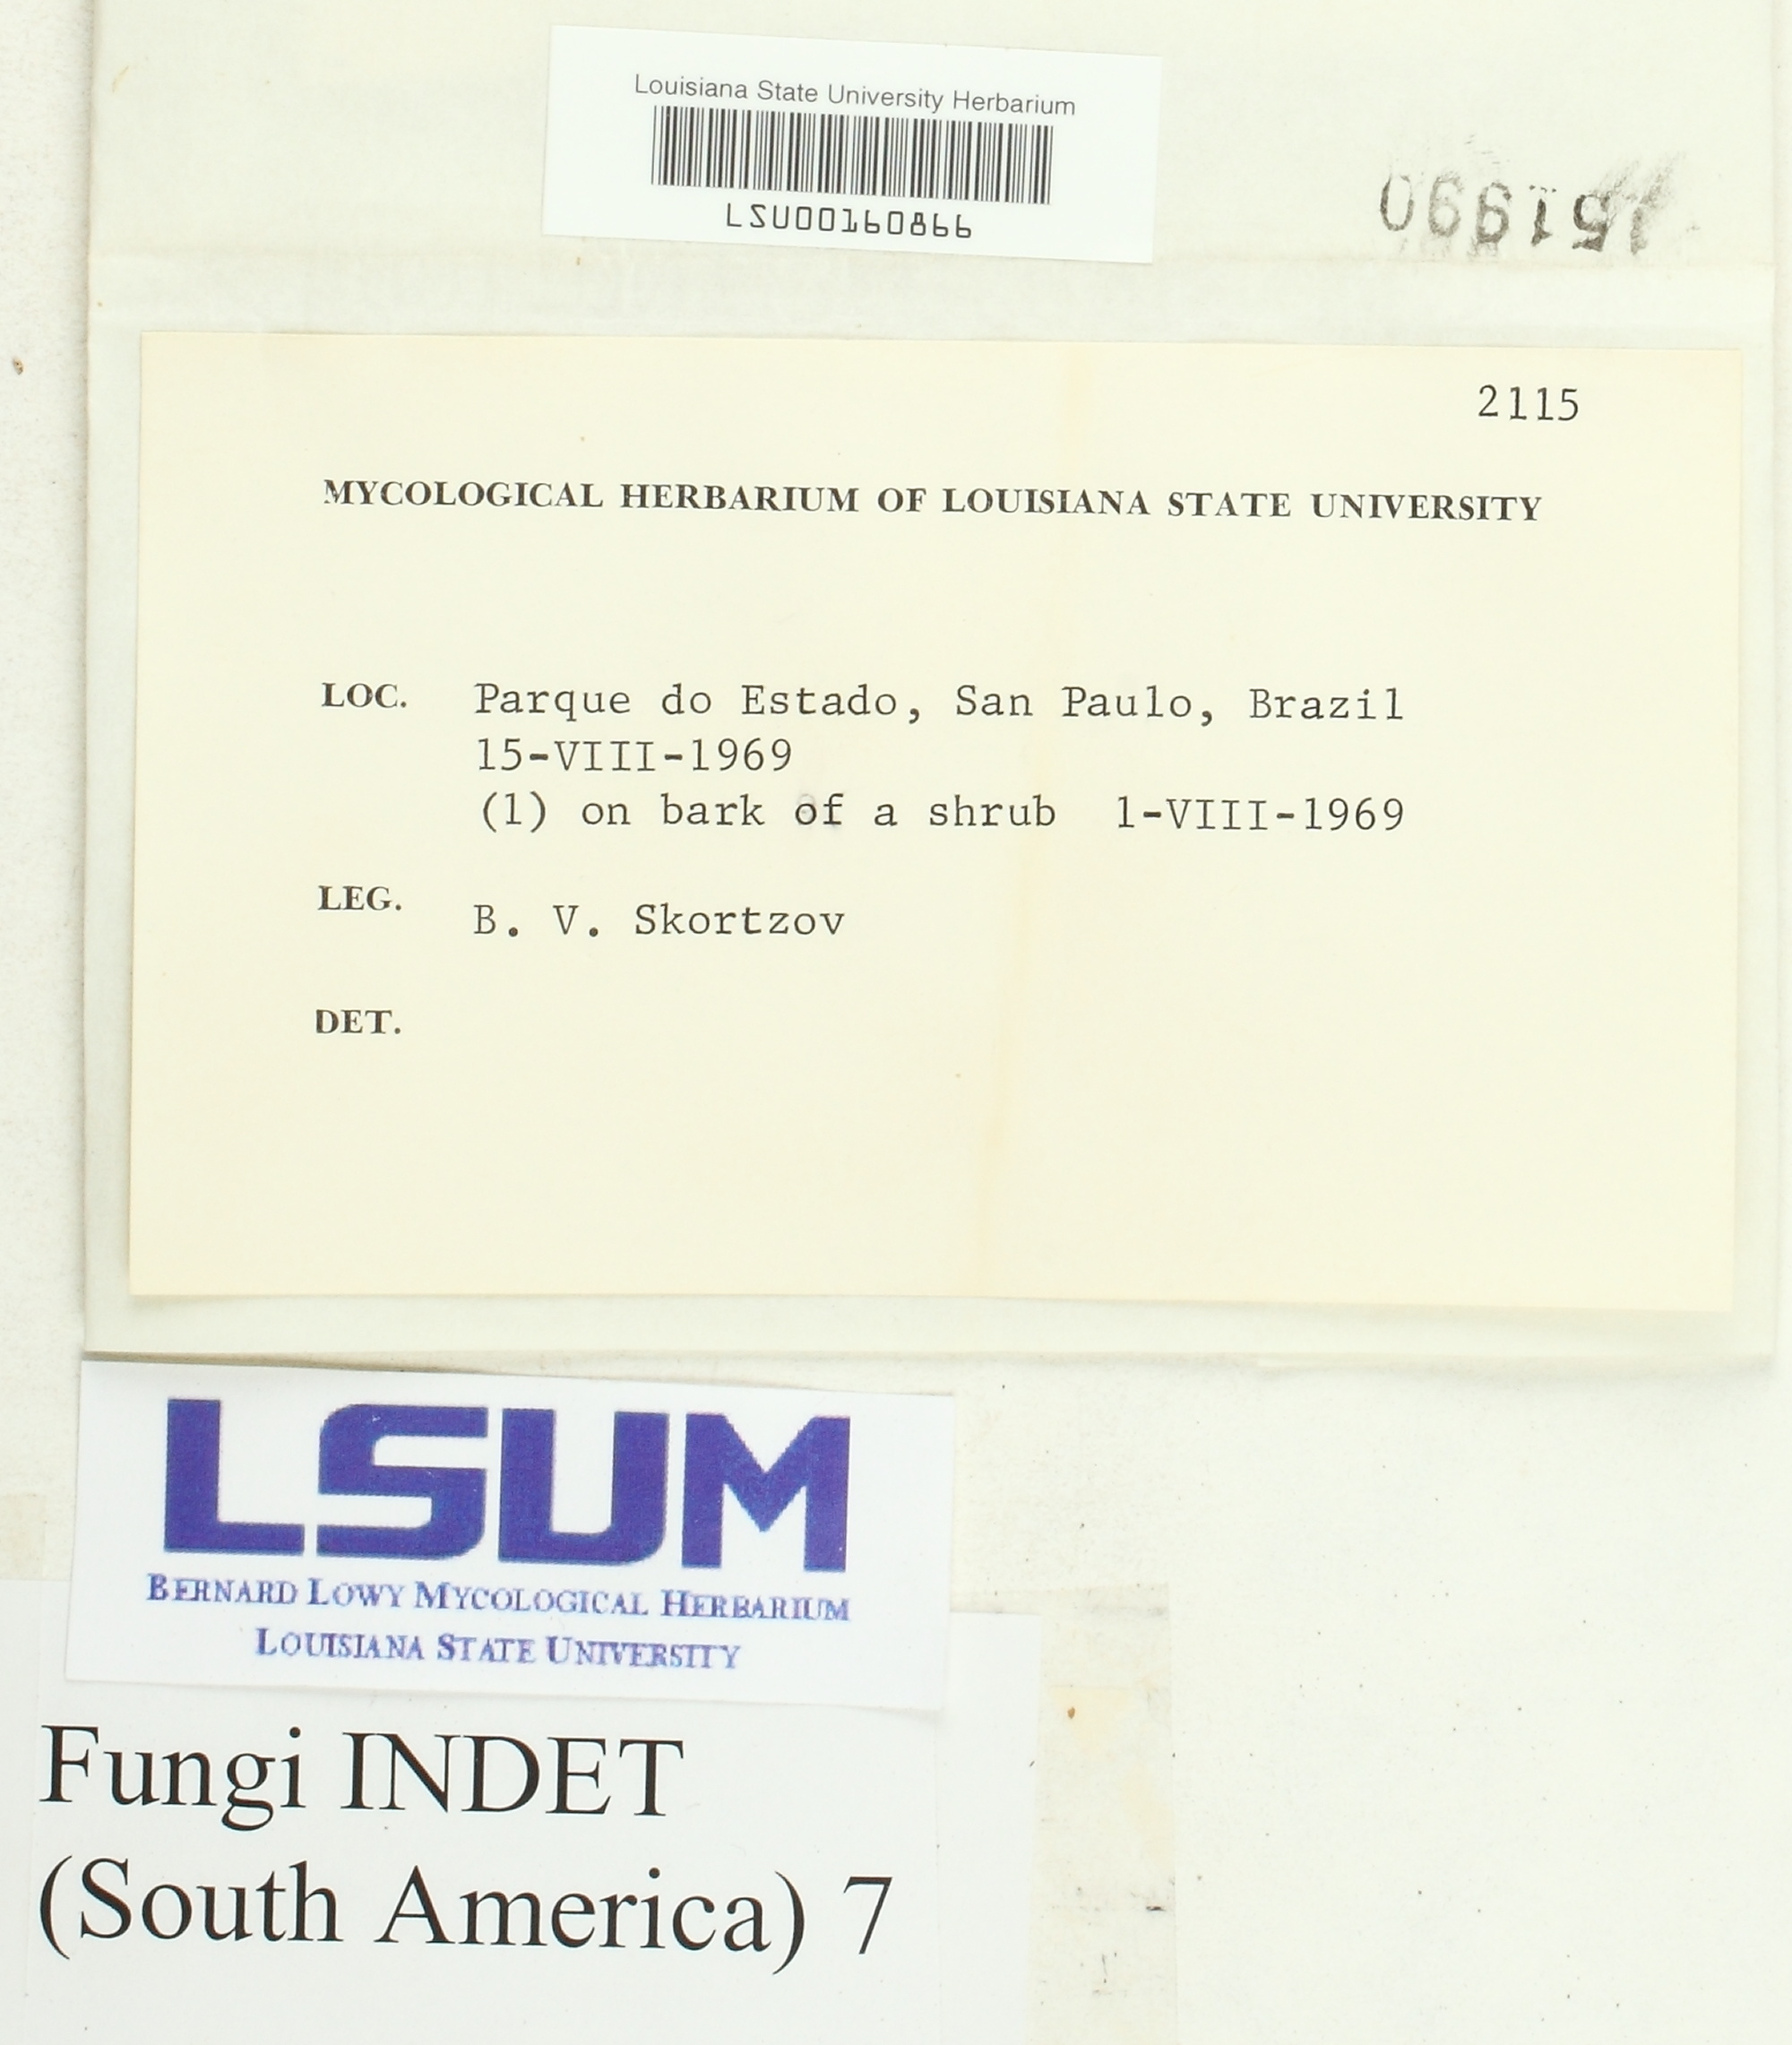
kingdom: Fungi
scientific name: Fungi
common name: Fungi
